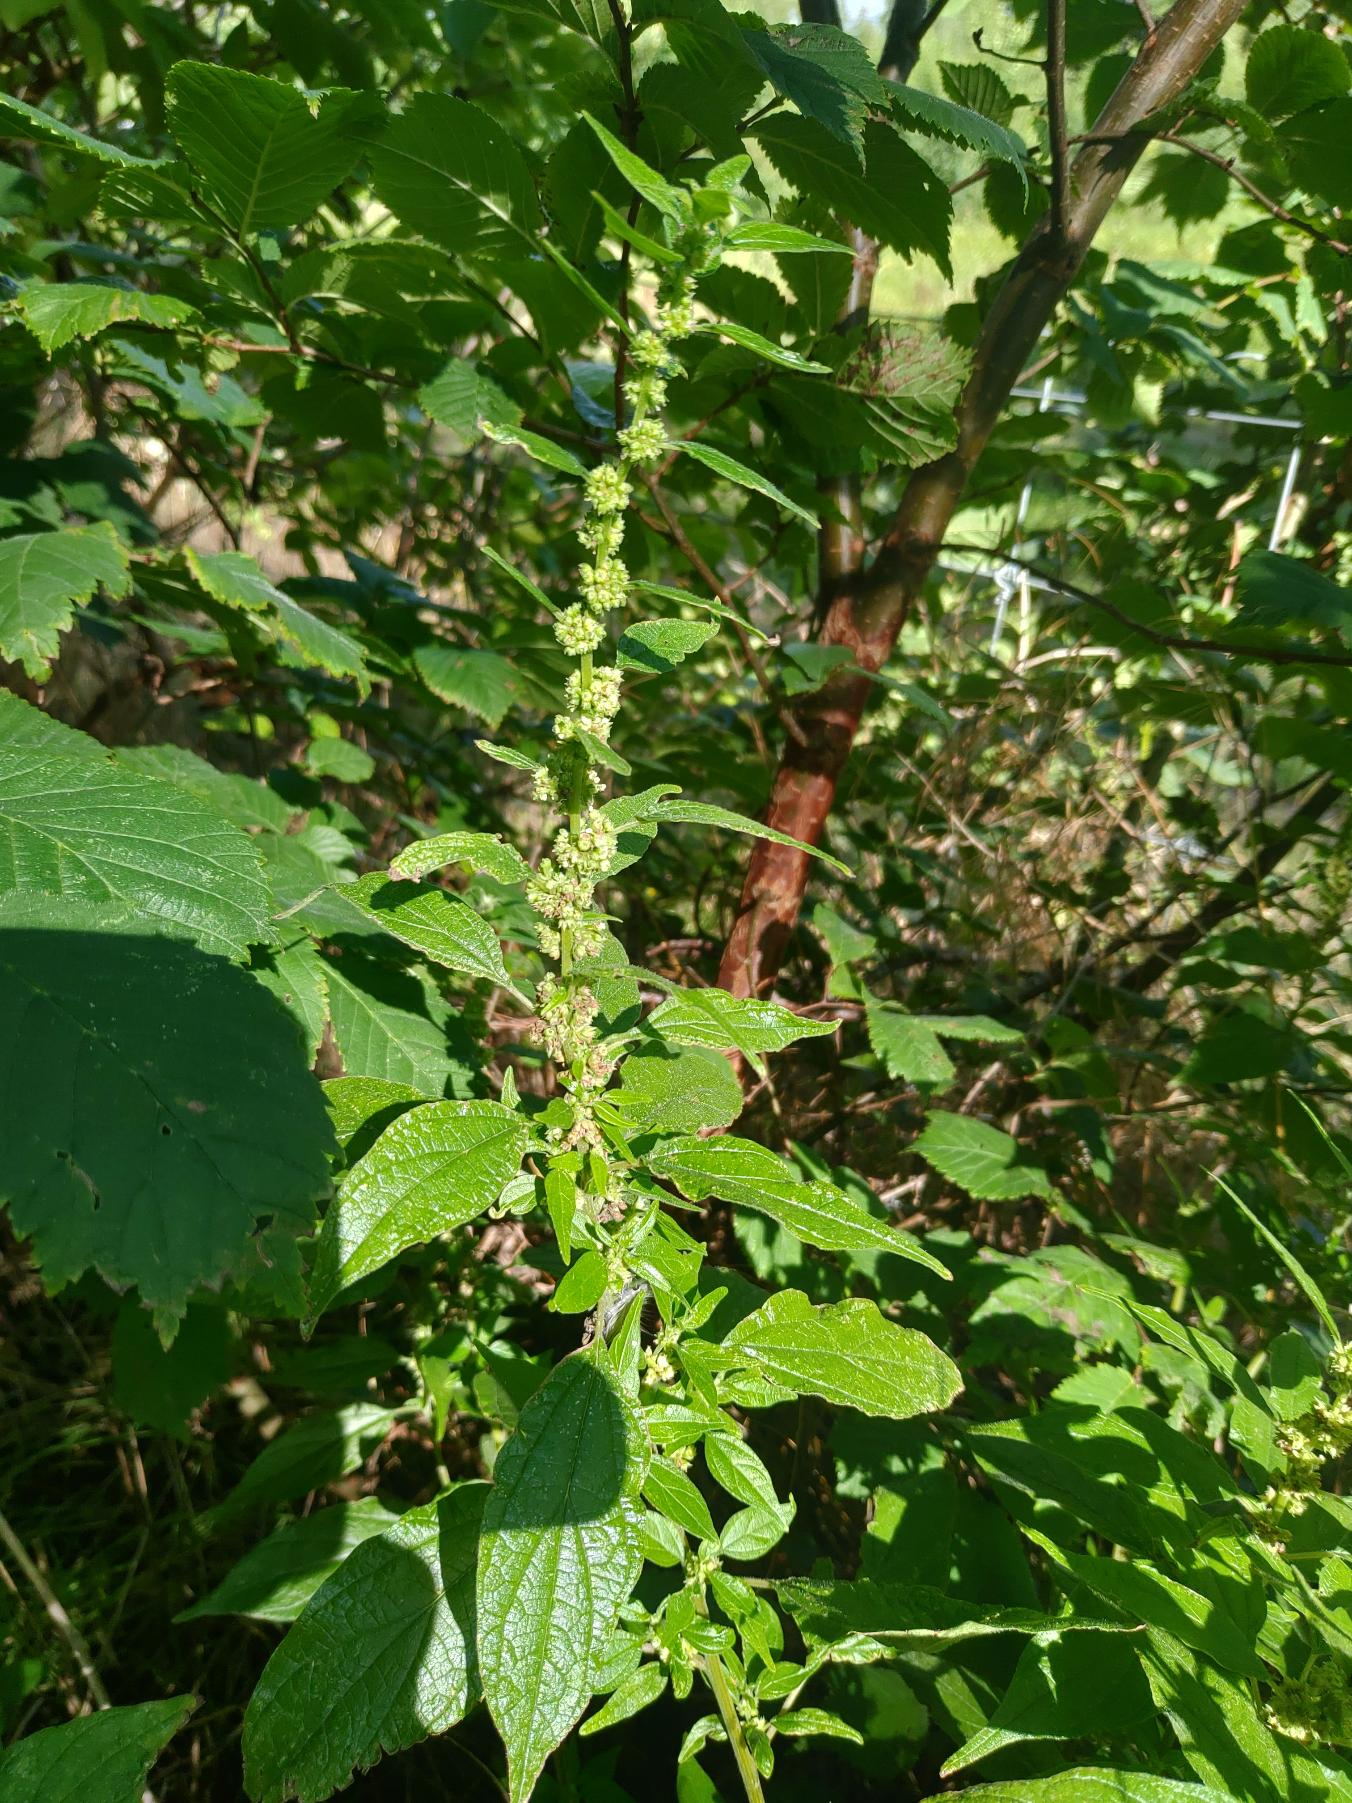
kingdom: Plantae
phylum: Tracheophyta
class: Magnoliopsida
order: Rosales
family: Urticaceae
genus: Parietaria
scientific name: Parietaria officinalis
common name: Almindelig springknap
